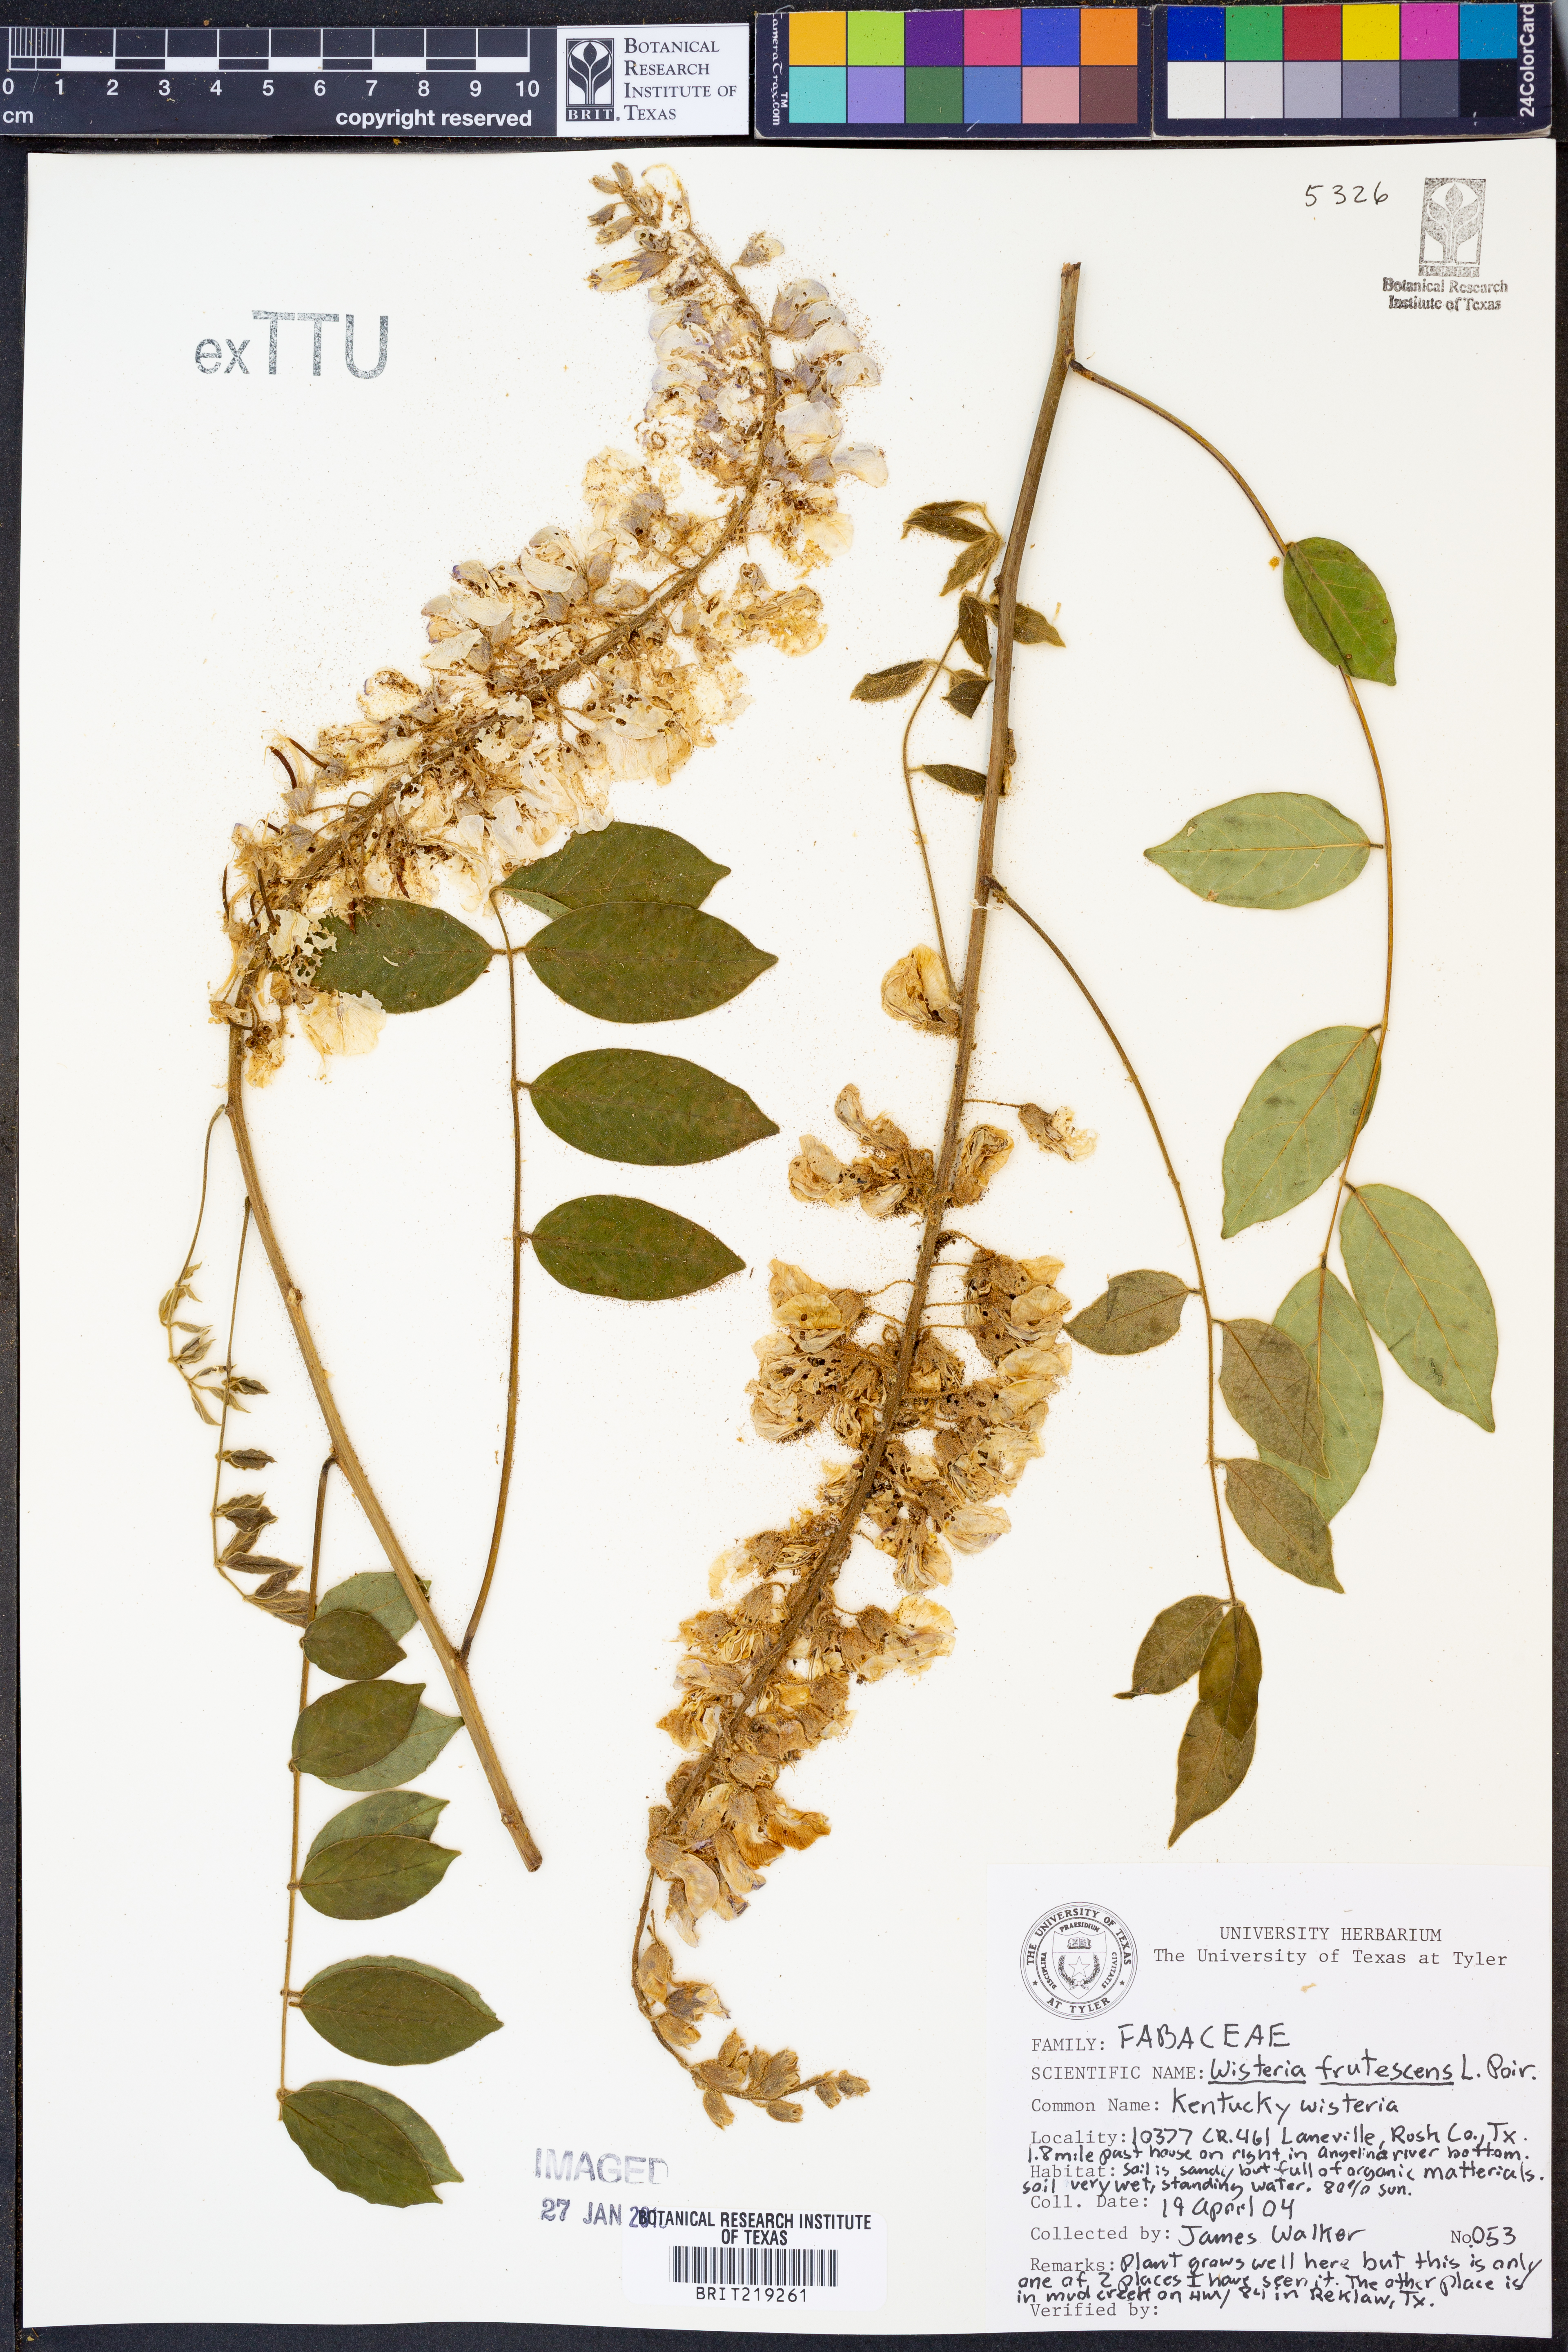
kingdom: Plantae
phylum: Tracheophyta
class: Magnoliopsida
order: Fabales
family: Fabaceae
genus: Wisteria
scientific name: Wisteria frutescens
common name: American wisteria
